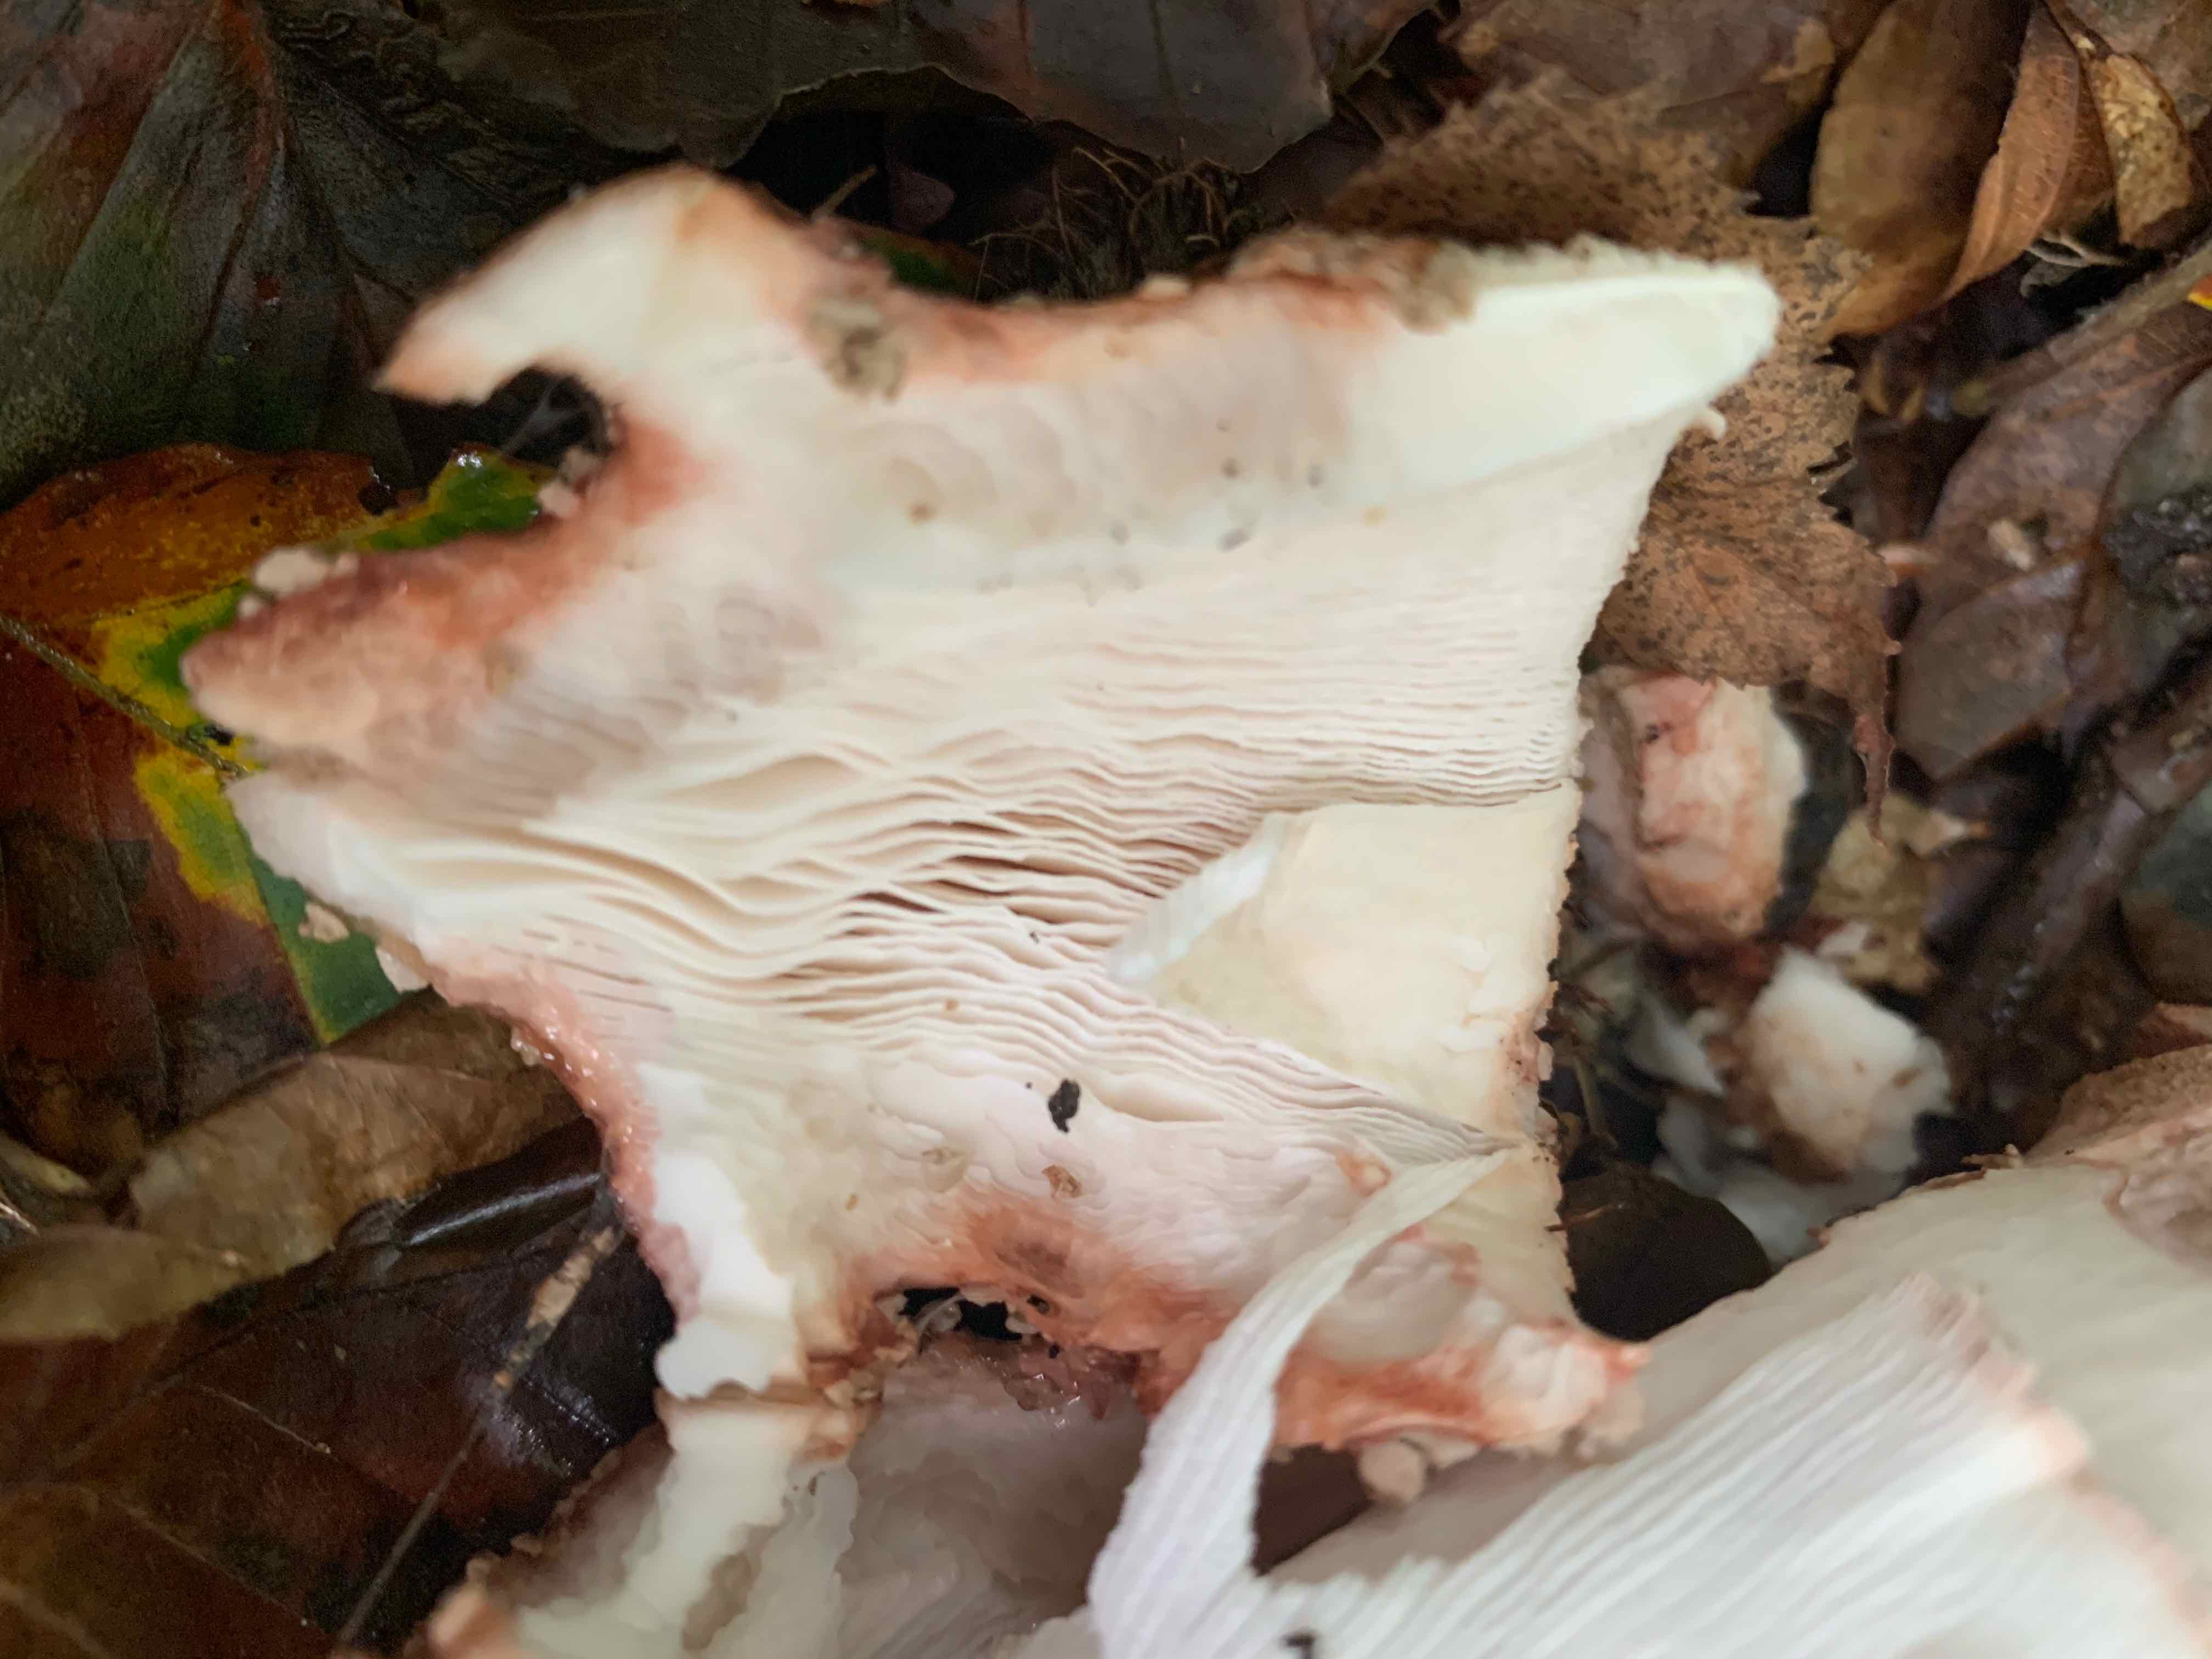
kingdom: Fungi
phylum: Basidiomycota
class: Agaricomycetes
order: Agaricales
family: Amanitaceae
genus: Amanita
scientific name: Amanita rubescens
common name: rødmende fluesvamp
